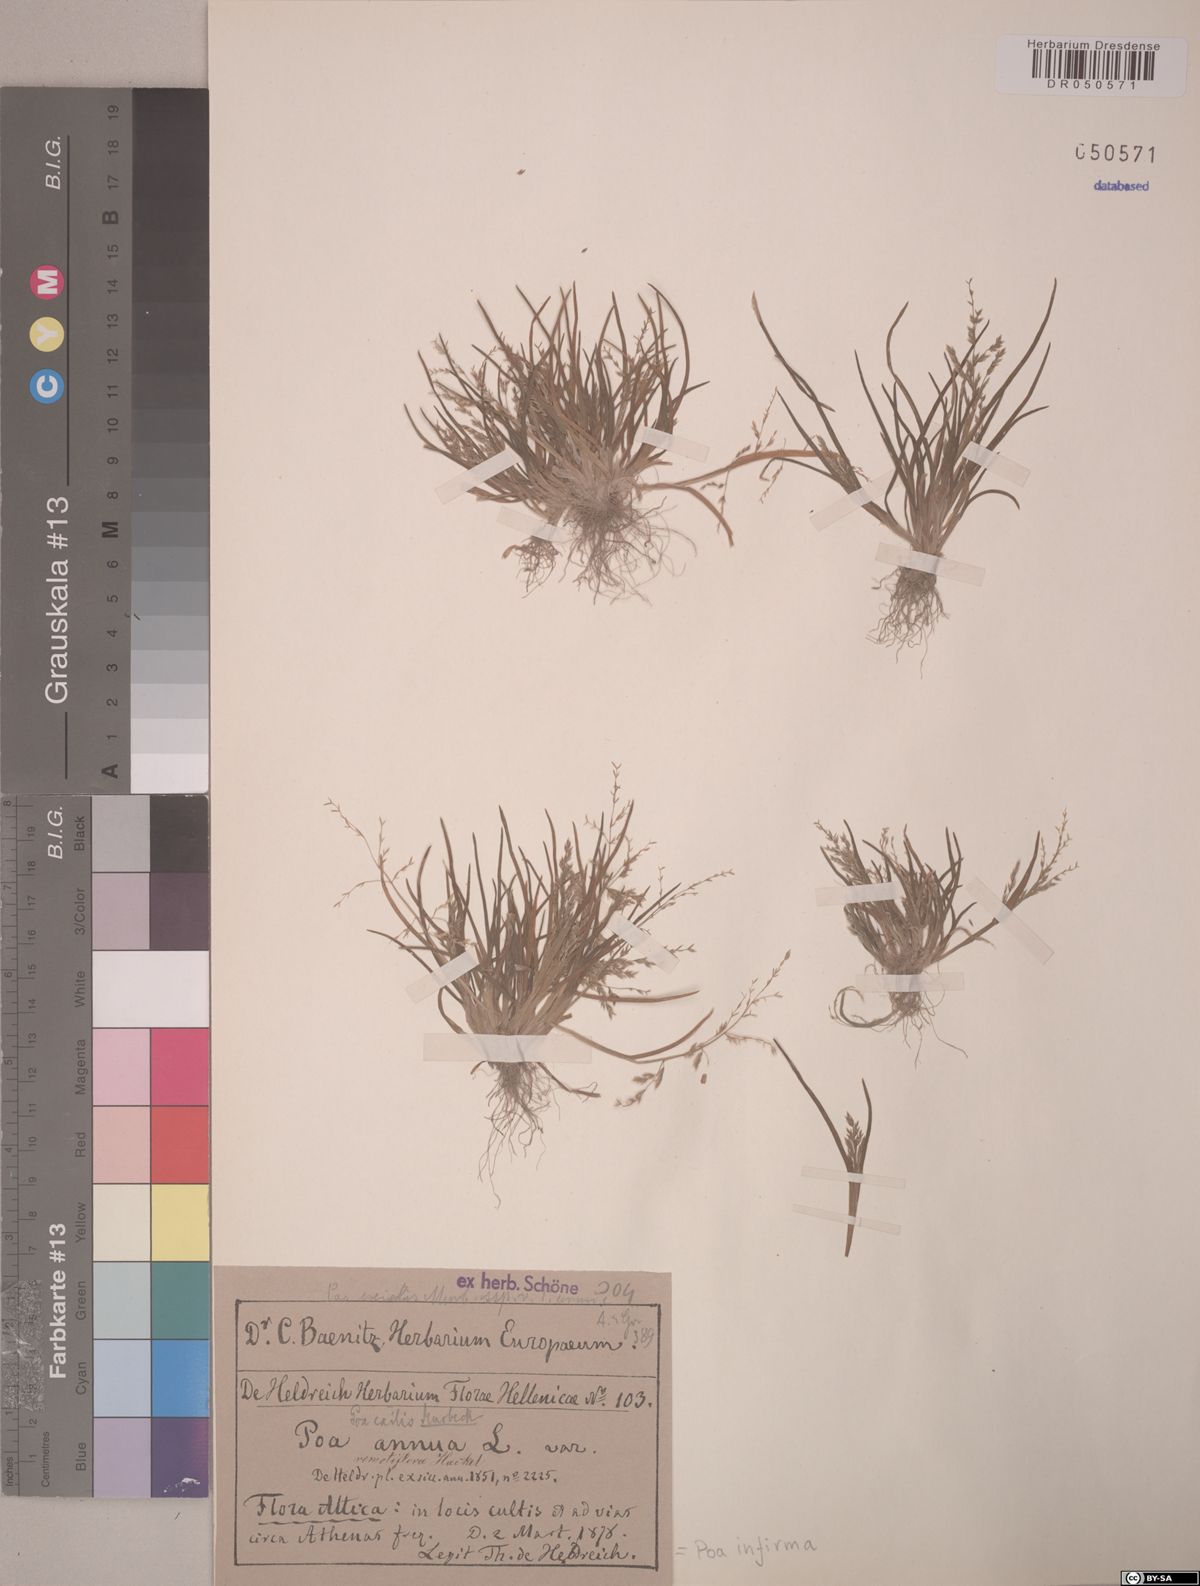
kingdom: Plantae
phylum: Tracheophyta
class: Liliopsida
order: Poales
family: Poaceae
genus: Poa
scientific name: Poa infirma
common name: Weak bluegrass
